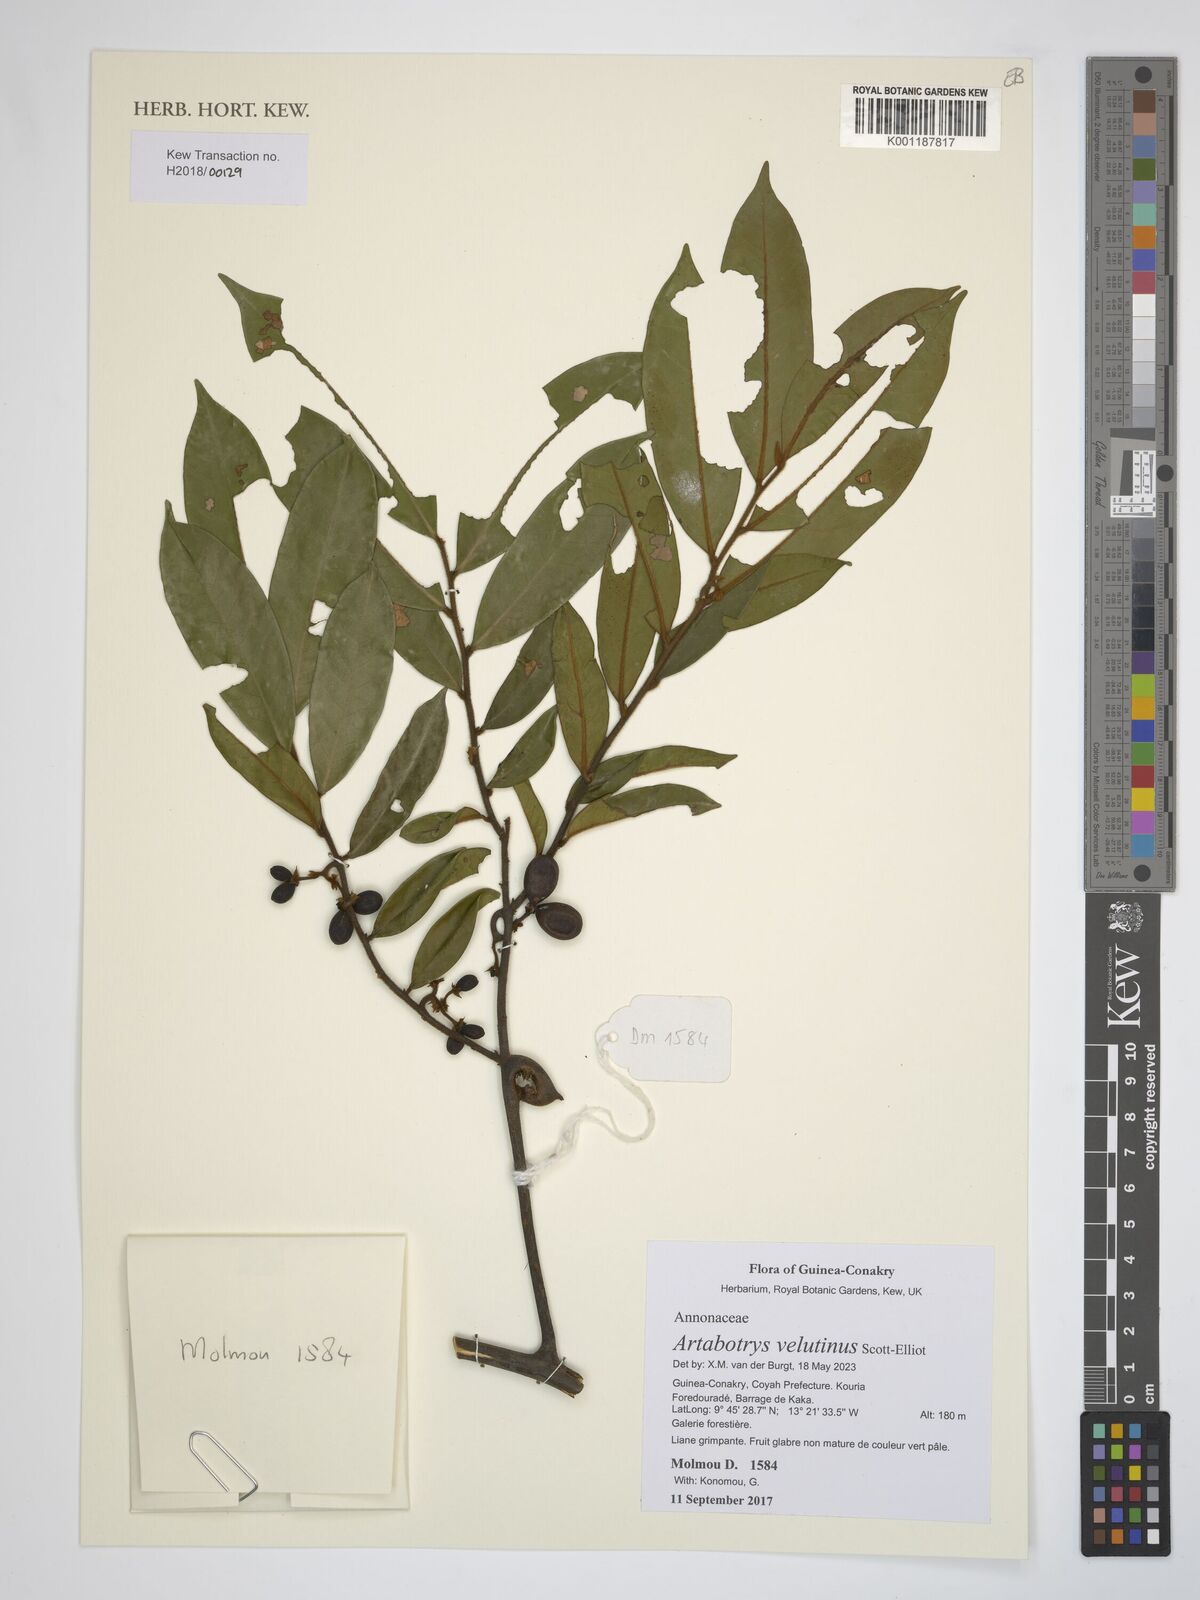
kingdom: Plantae
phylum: Tracheophyta
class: Magnoliopsida
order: Magnoliales
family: Annonaceae
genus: Artabotrys
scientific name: Artabotrys velutinus
